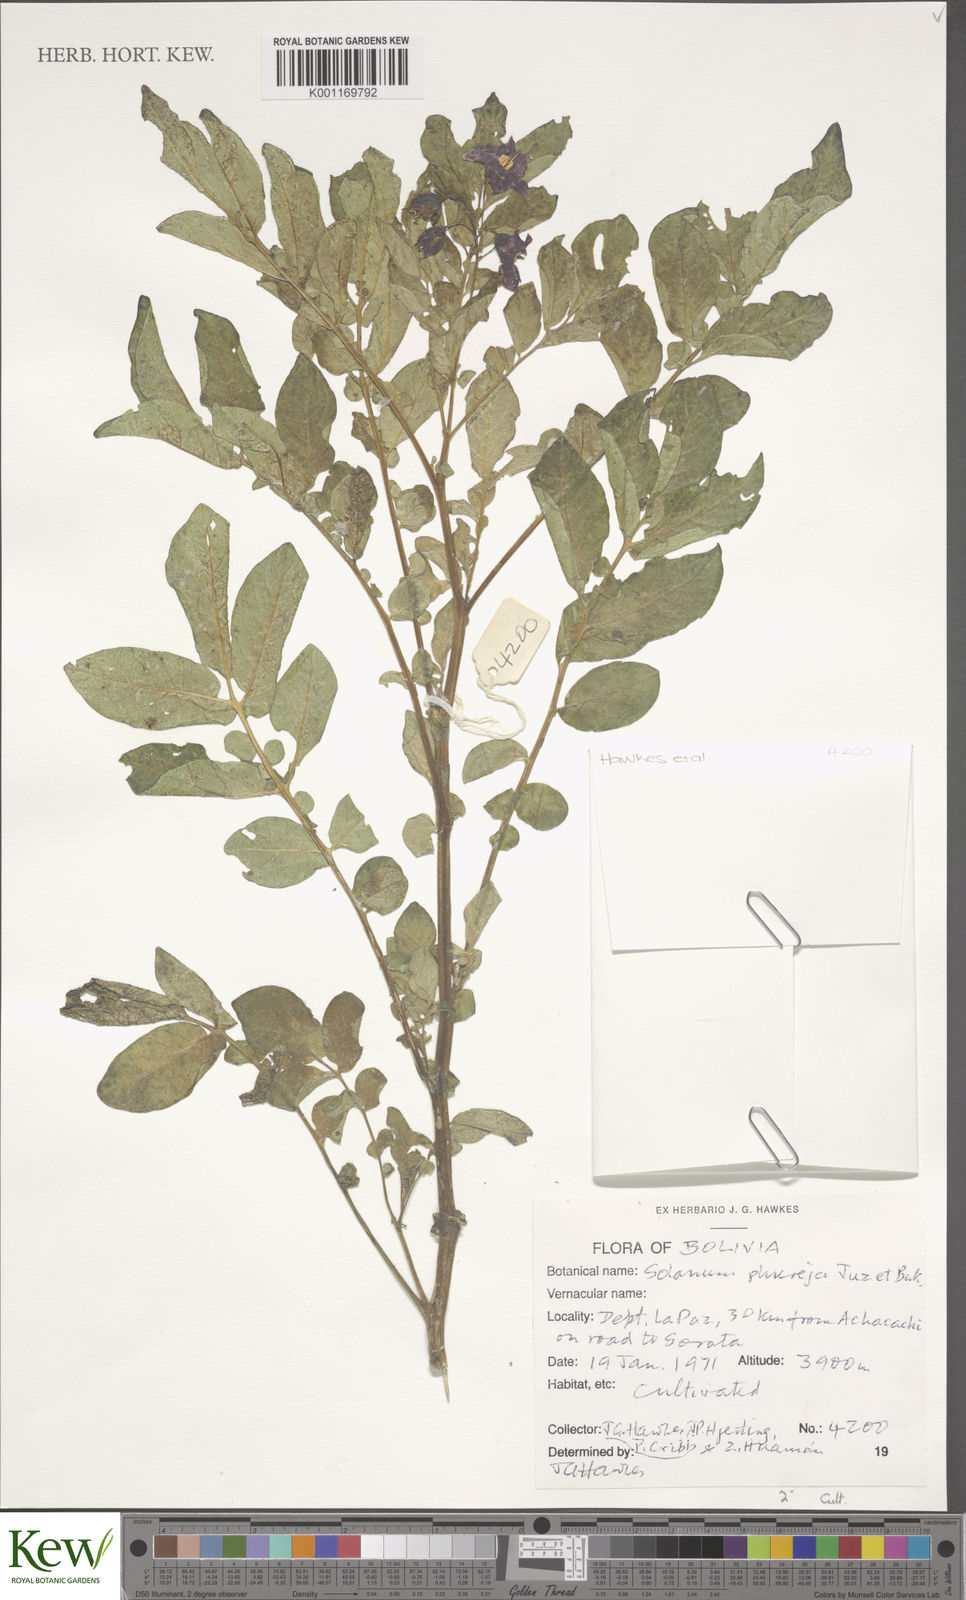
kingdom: Plantae
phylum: Tracheophyta
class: Magnoliopsida
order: Solanales
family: Solanaceae
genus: Solanum
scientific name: Solanum tuberosum
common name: Potato
